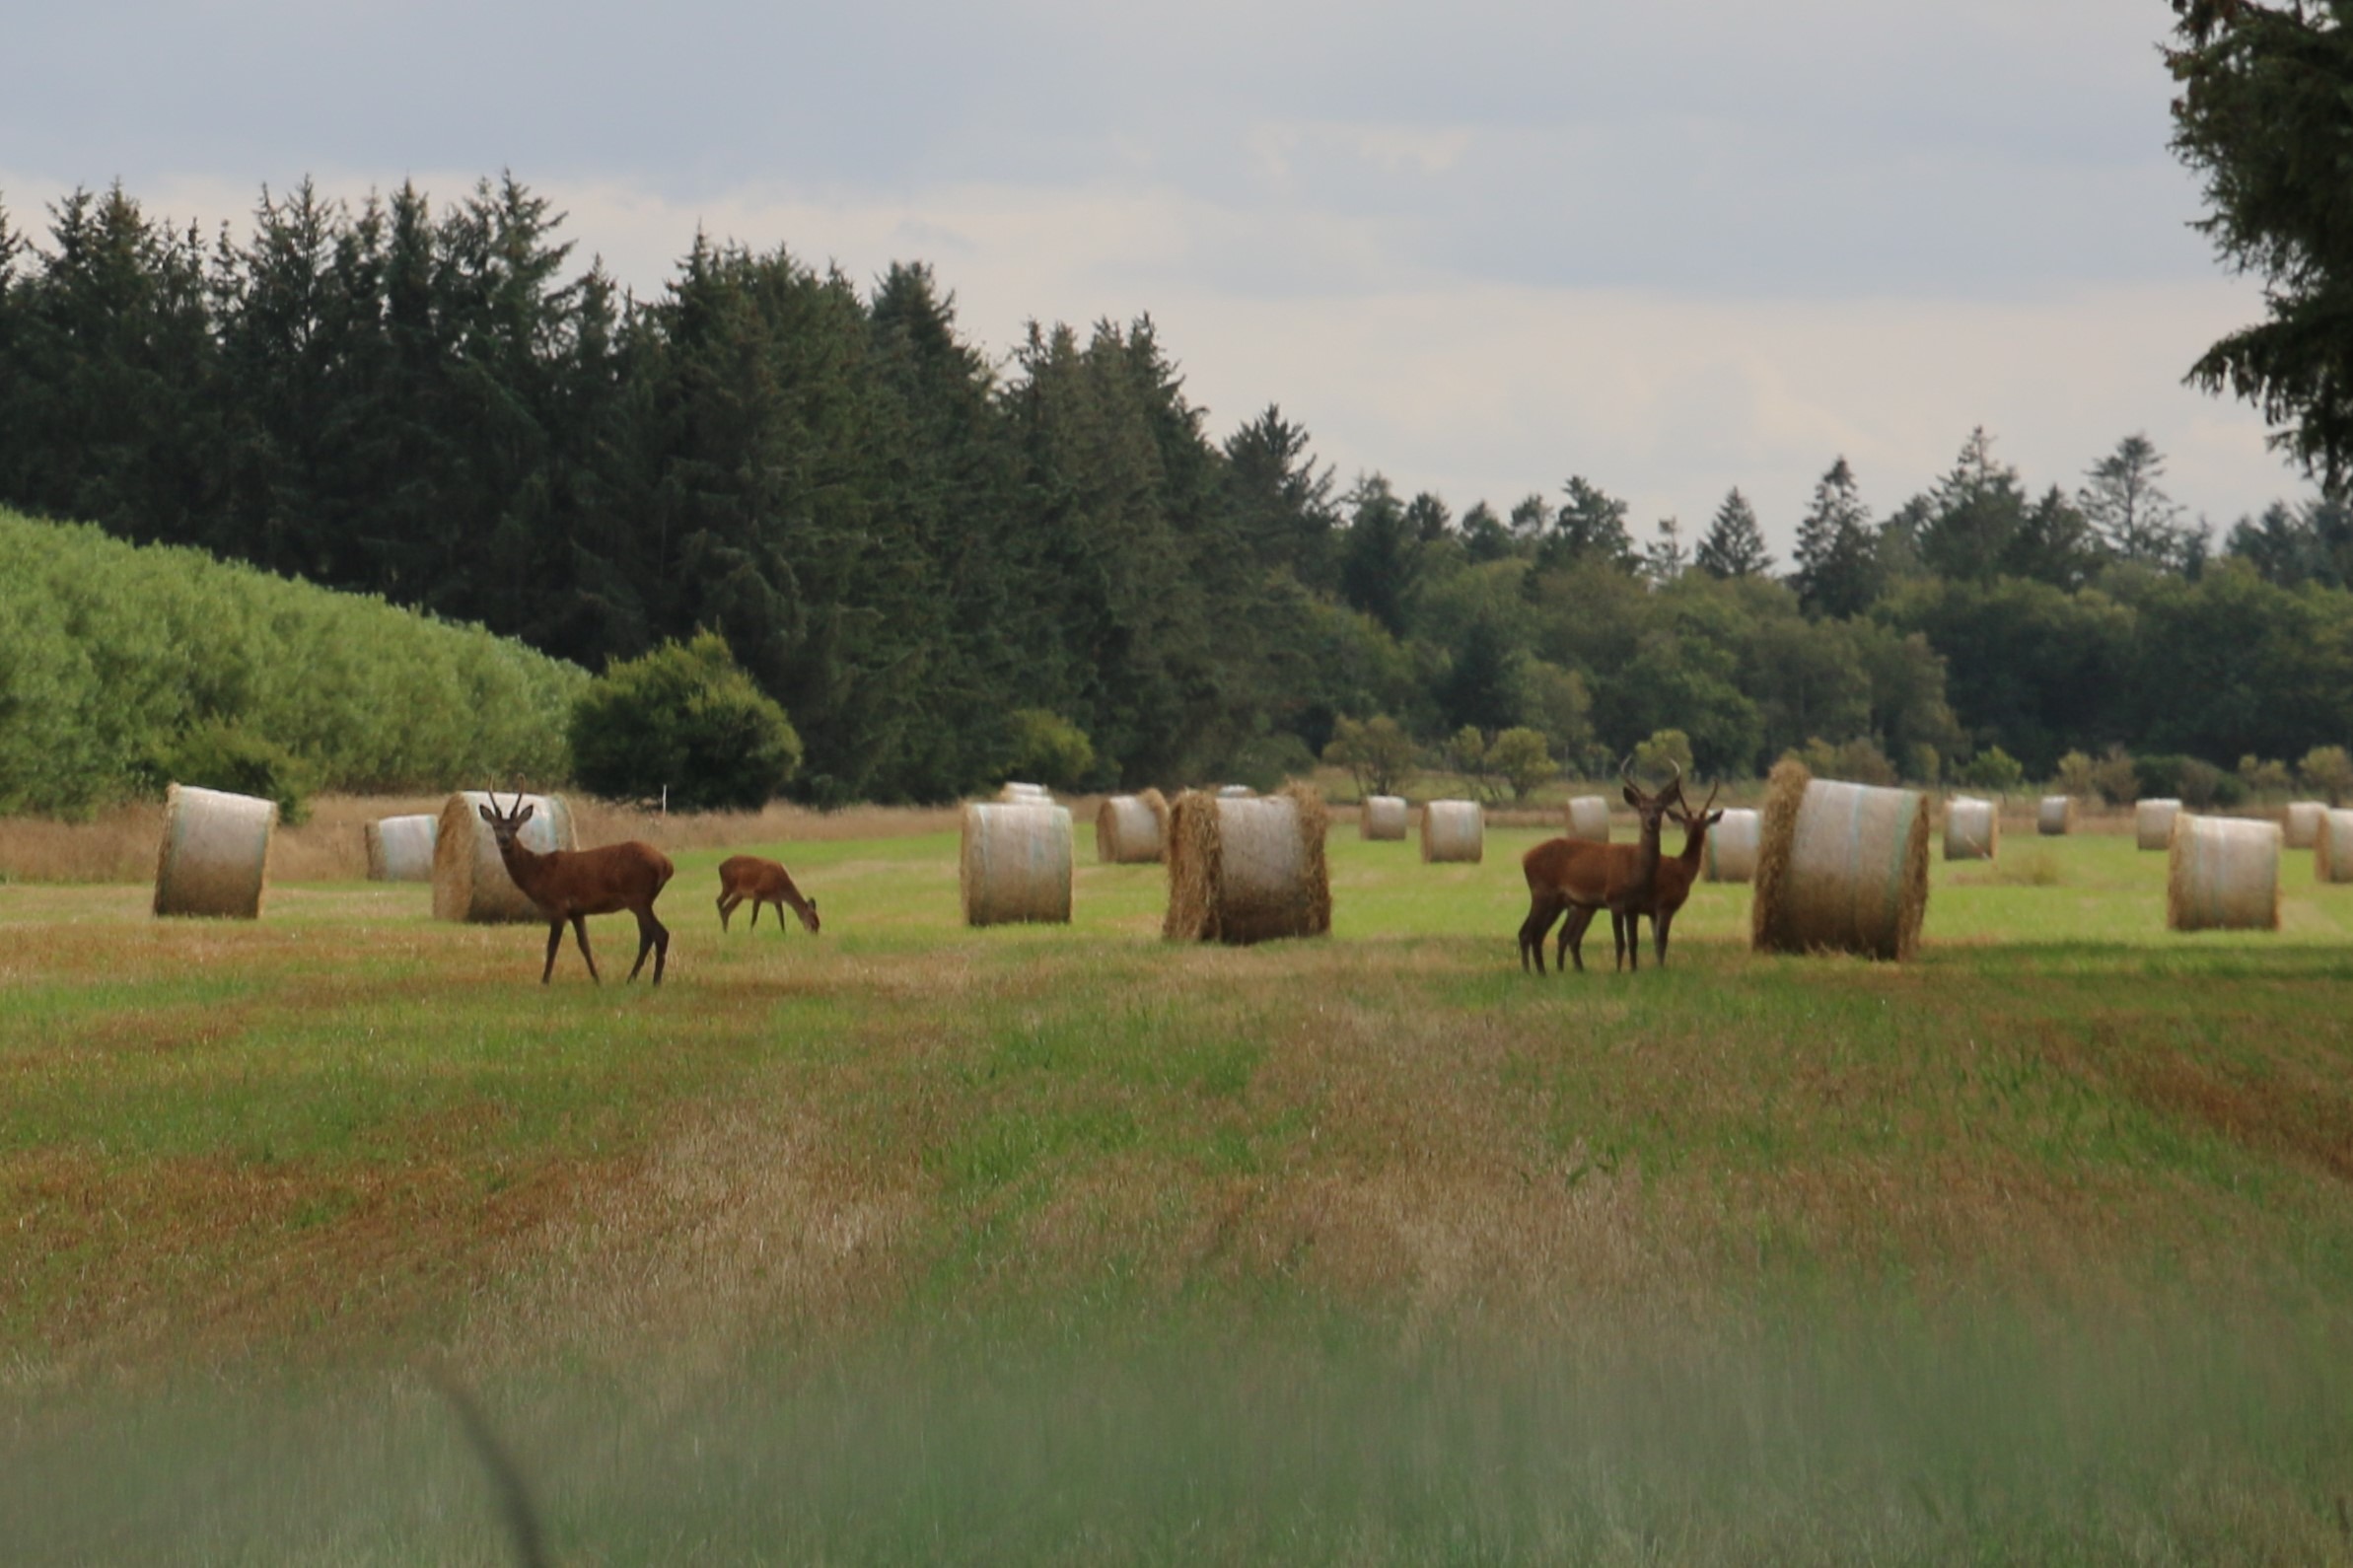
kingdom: Animalia
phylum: Chordata
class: Mammalia
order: Artiodactyla
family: Cervidae
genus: Cervus
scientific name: Cervus elaphus
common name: Krondyr
